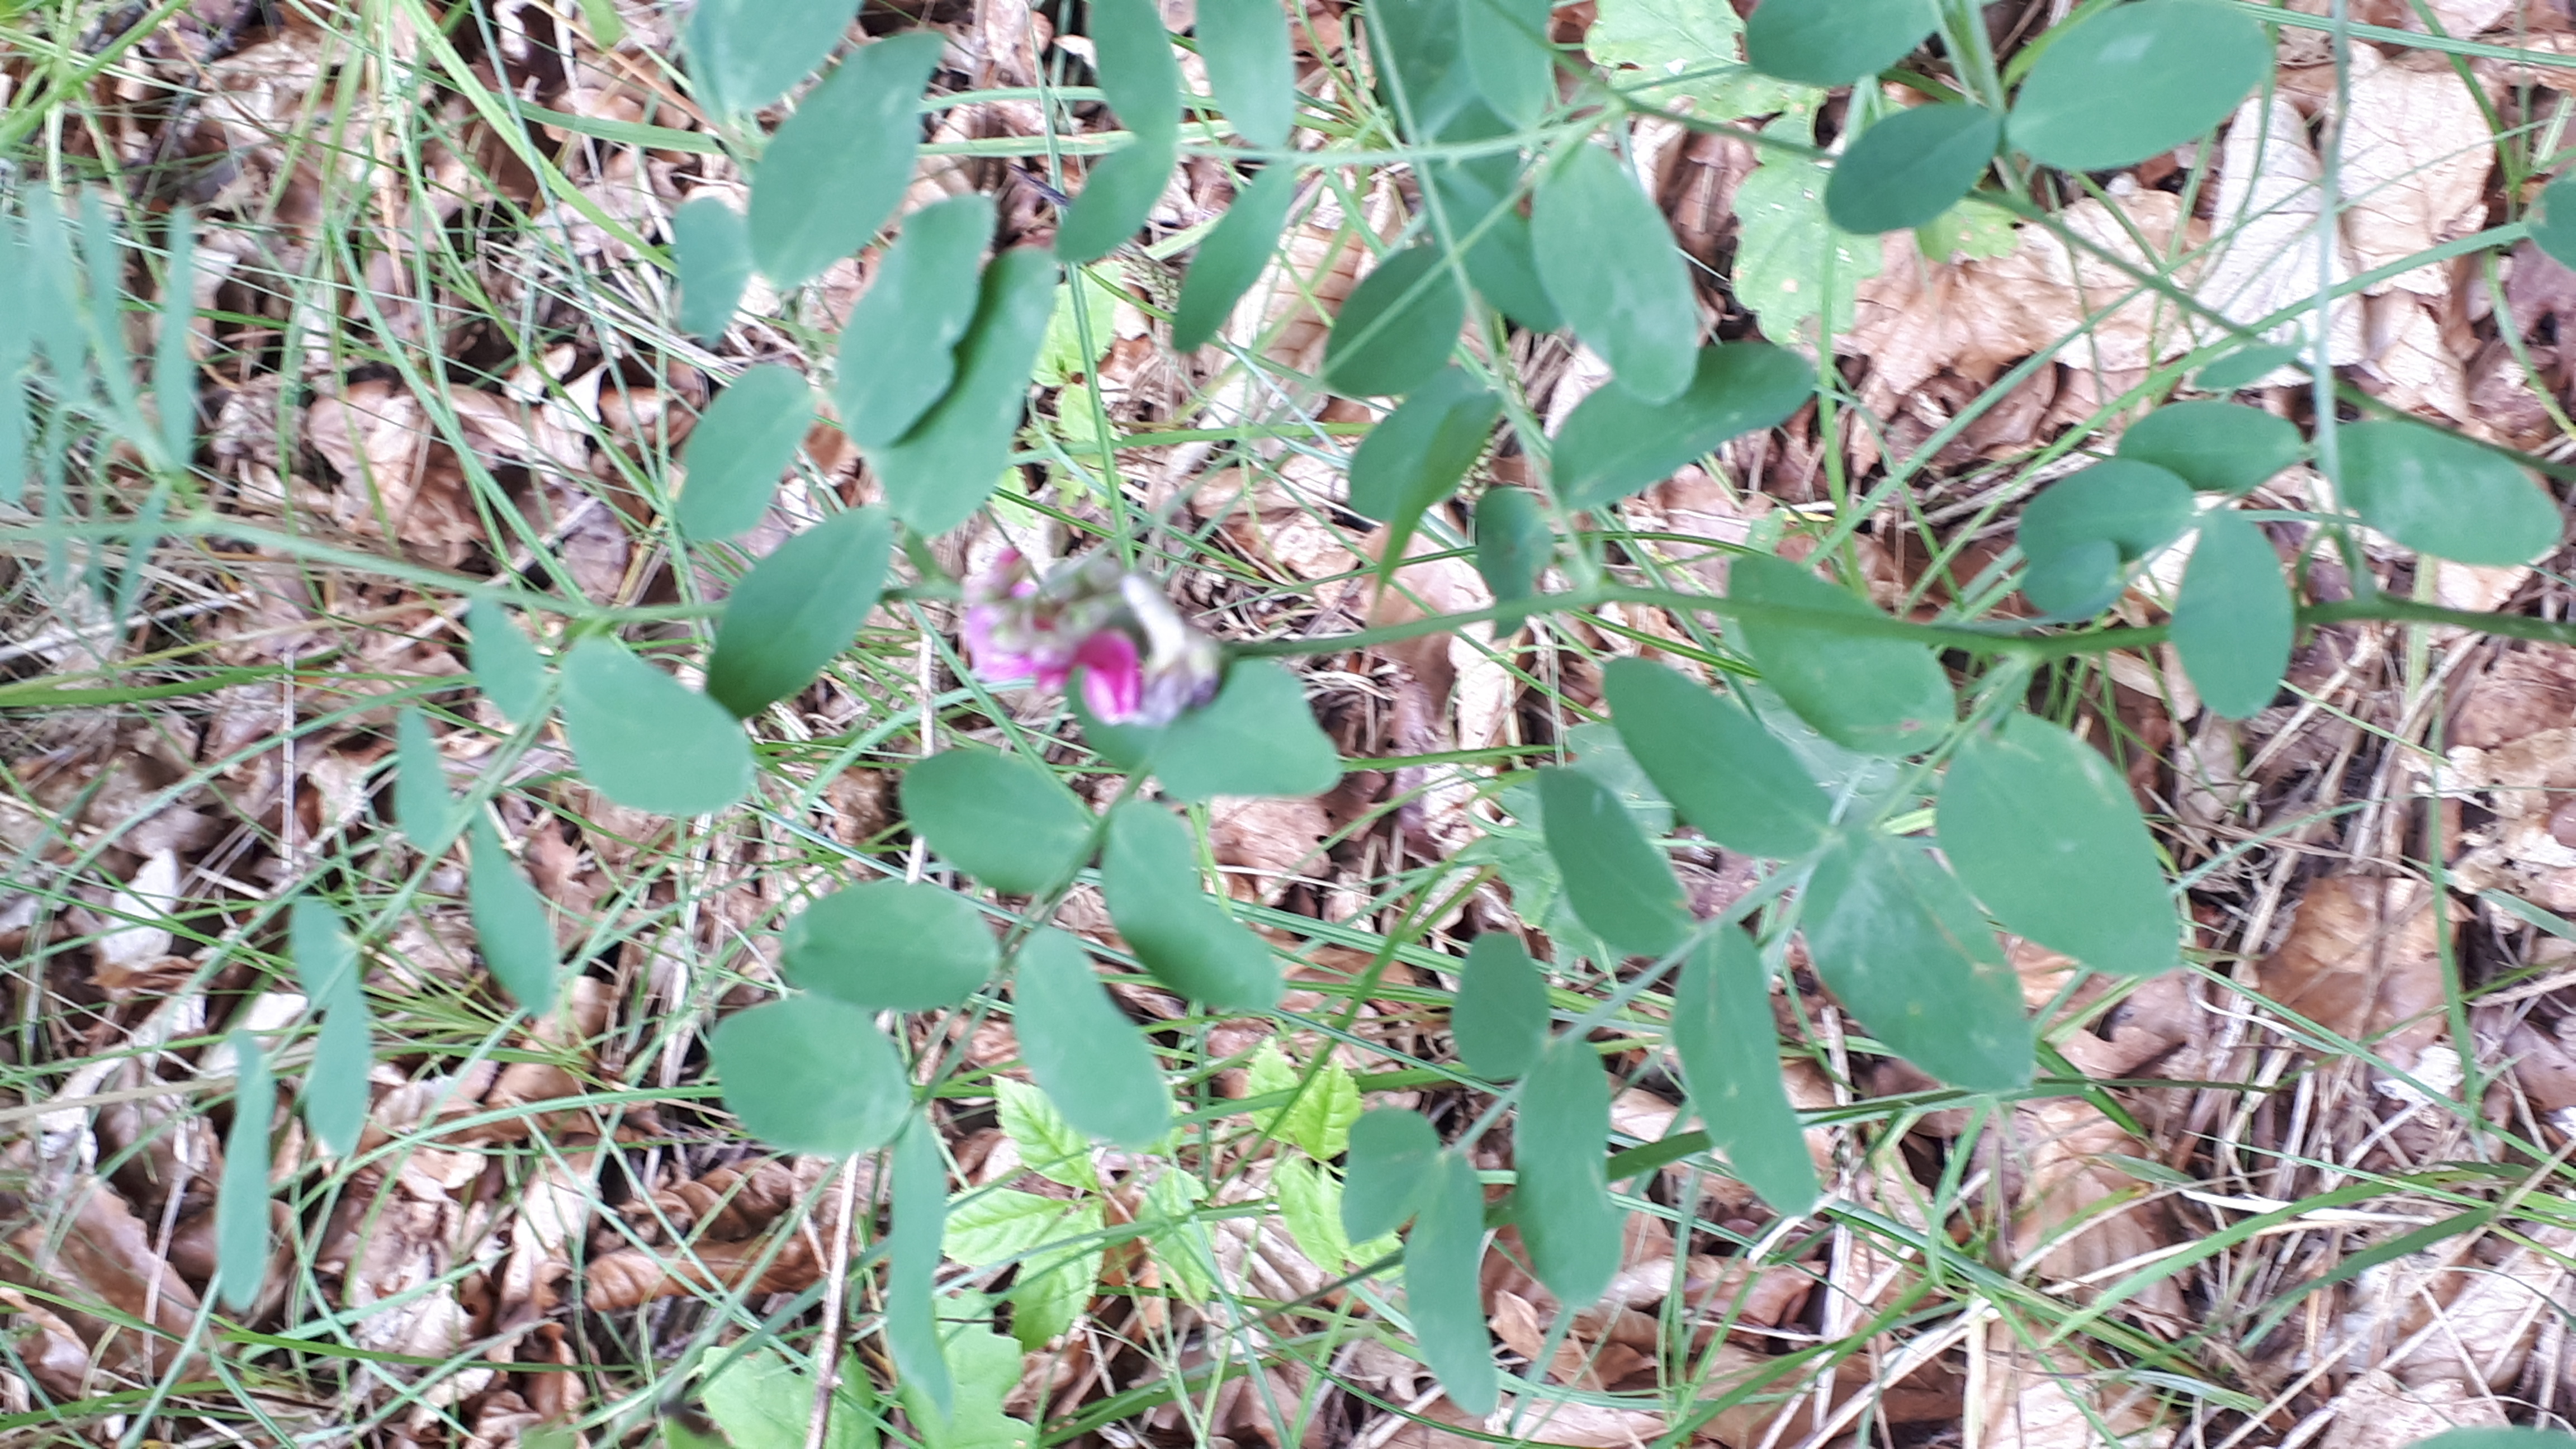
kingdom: Plantae
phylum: Tracheophyta
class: Magnoliopsida
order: Fabales
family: Fabaceae
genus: Lathyrus
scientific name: Lathyrus niger
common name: Sort fladbælg
